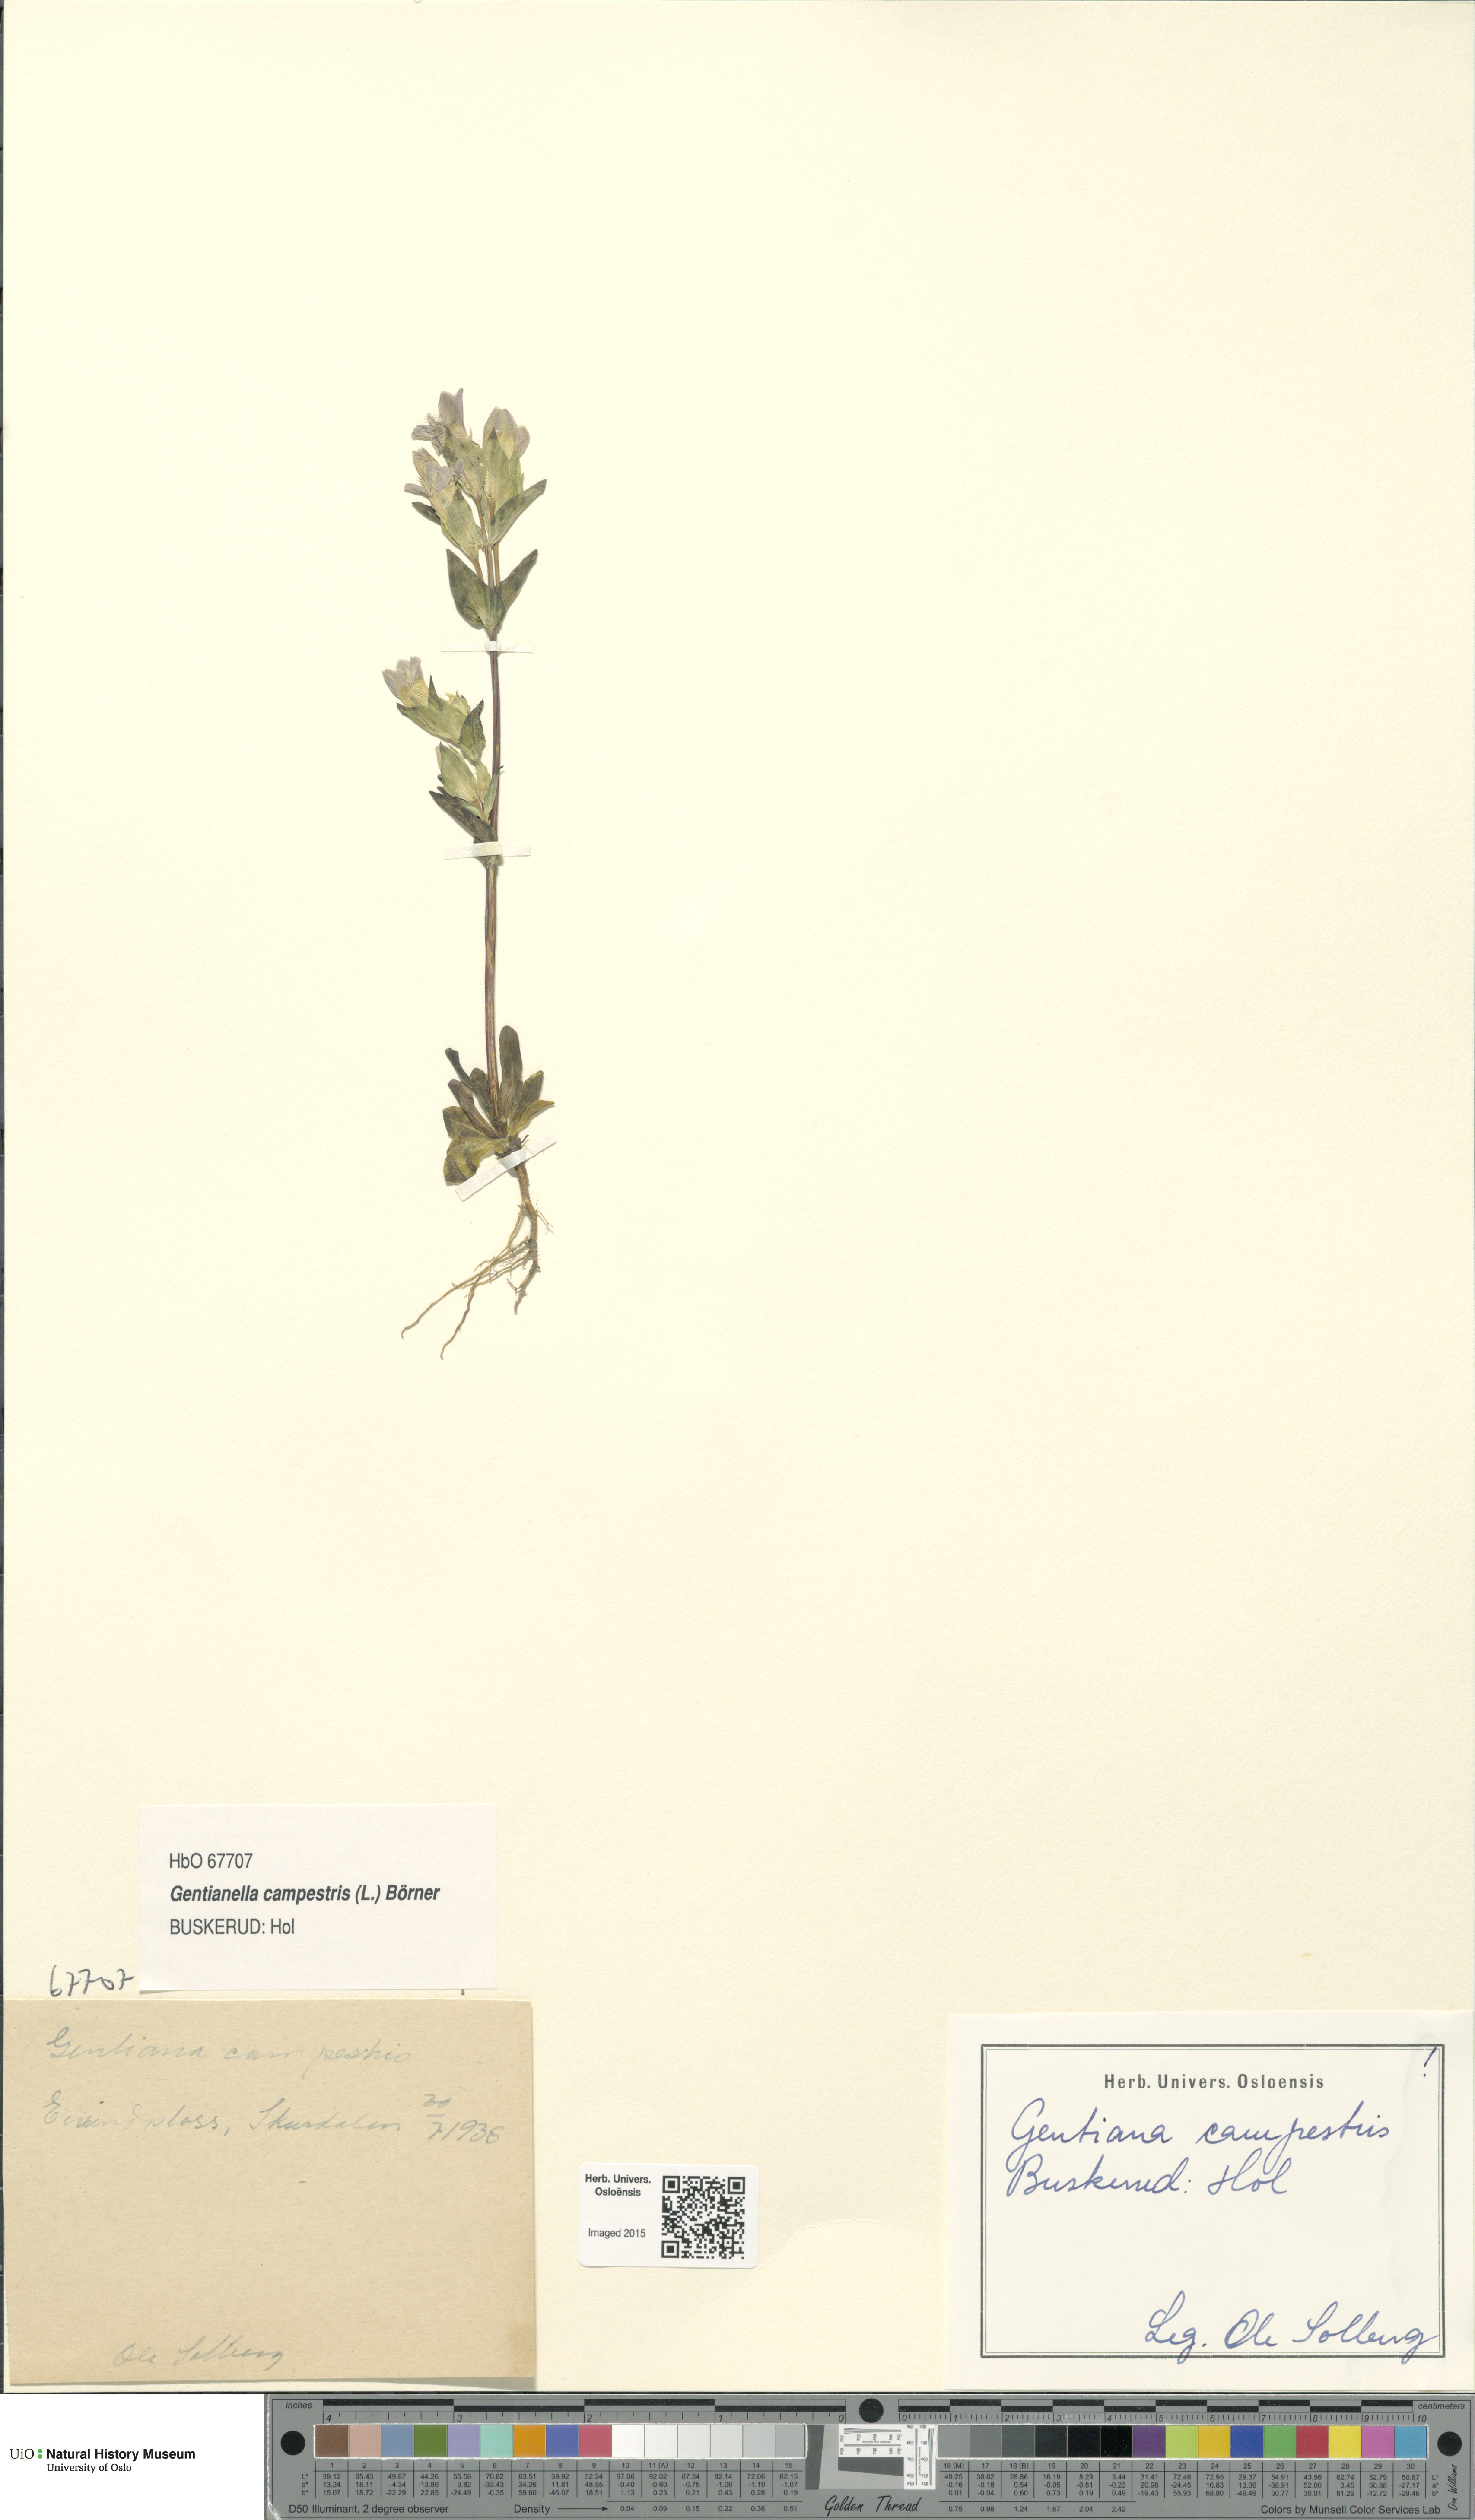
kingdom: Plantae
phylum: Tracheophyta
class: Magnoliopsida
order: Gentianales
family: Gentianaceae
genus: Gentianella
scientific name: Gentianella campestris
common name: Field gentian
